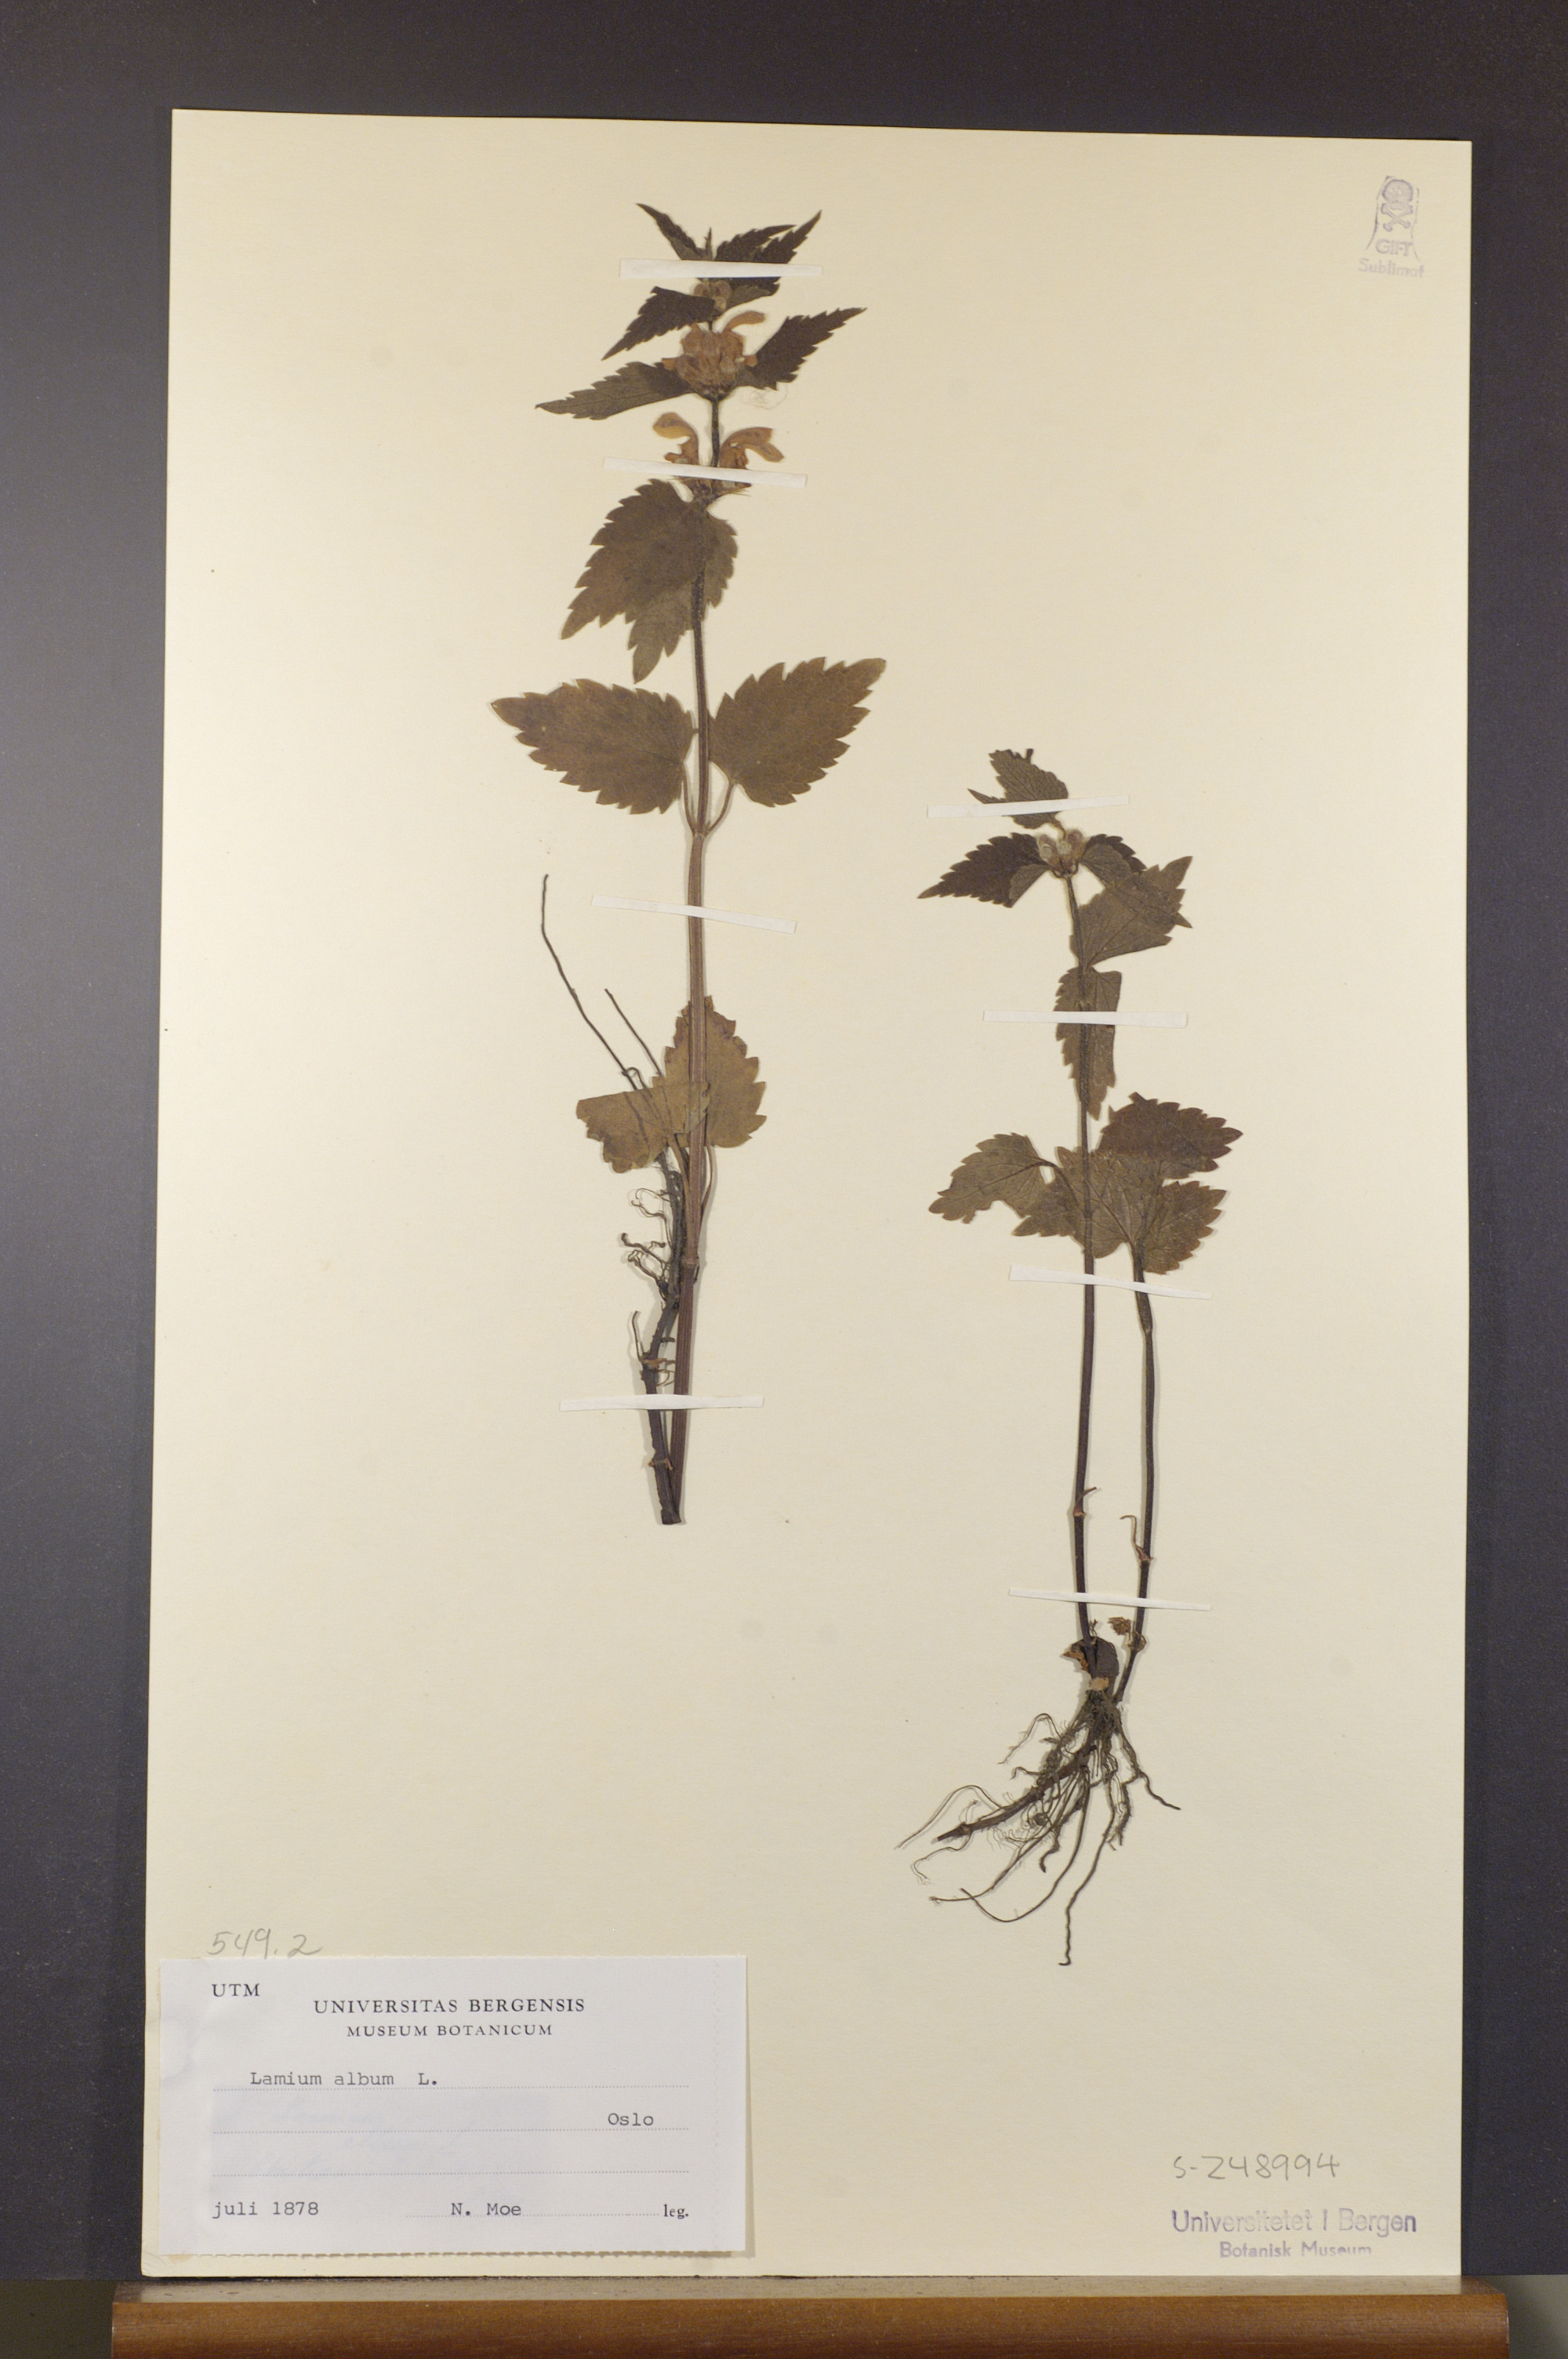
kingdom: Plantae
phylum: Tracheophyta
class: Magnoliopsida
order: Lamiales
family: Lamiaceae
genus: Lamium
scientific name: Lamium album
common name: White dead-nettle
